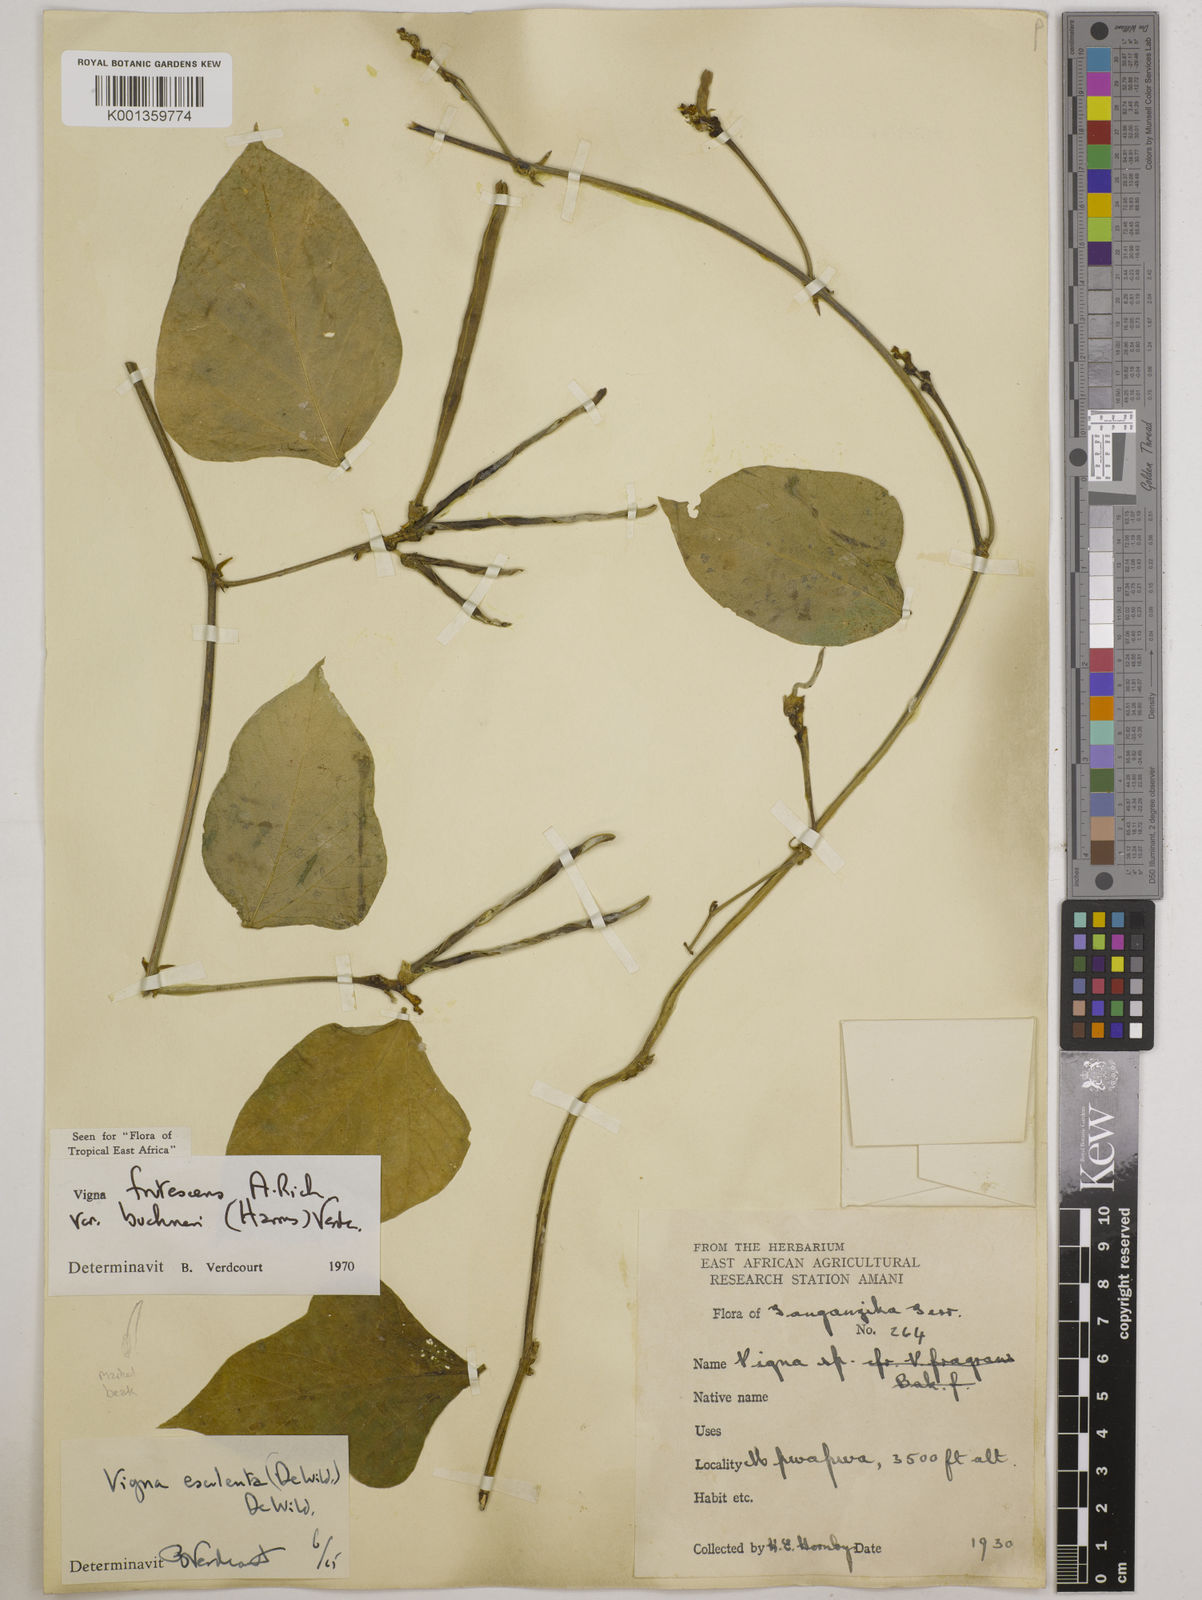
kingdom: Plantae
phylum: Tracheophyta
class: Magnoliopsida
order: Fabales
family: Fabaceae
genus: Vigna
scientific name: Vigna
